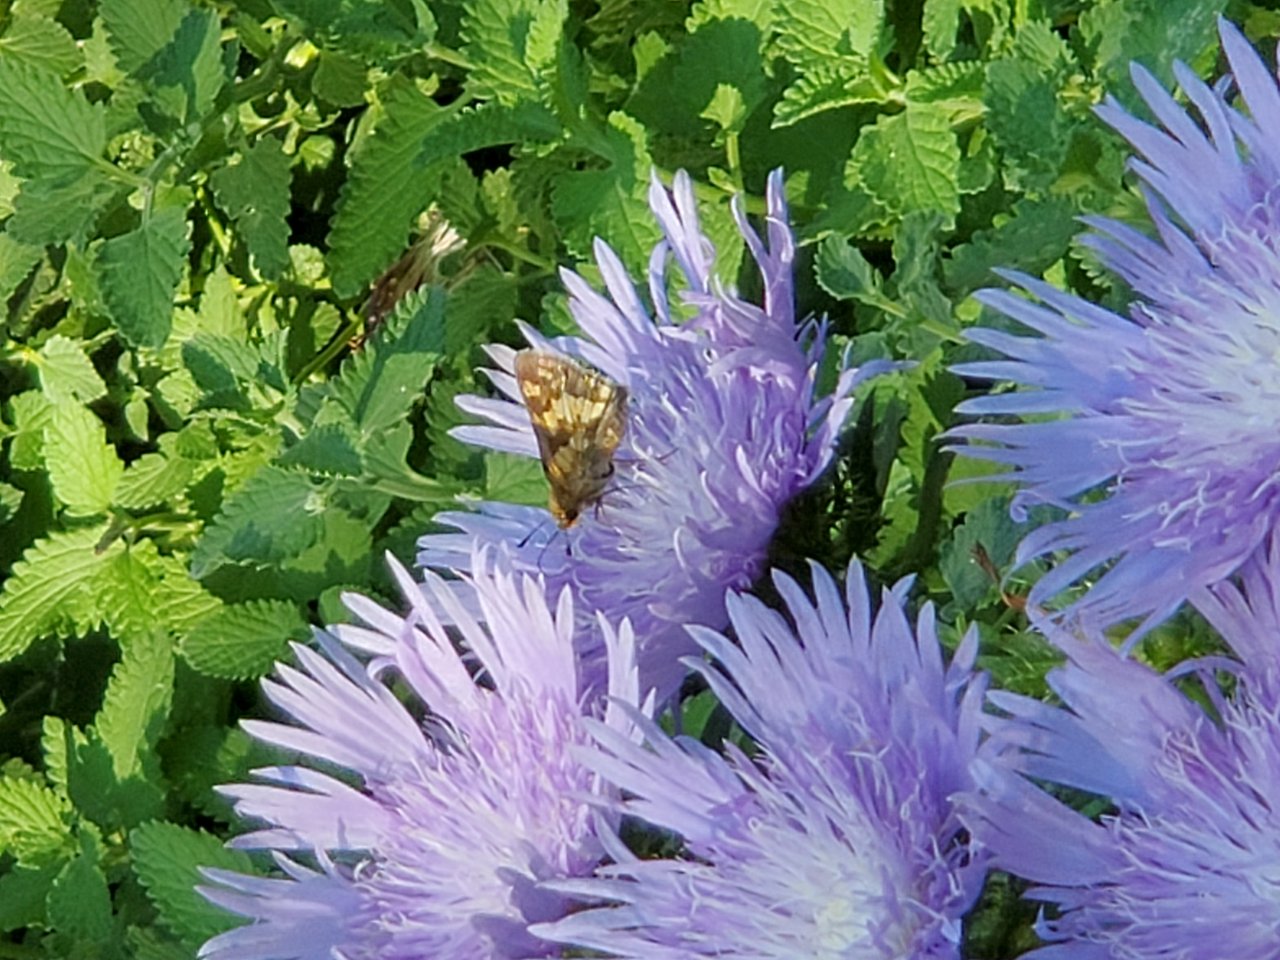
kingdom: Animalia
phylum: Arthropoda
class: Insecta
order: Lepidoptera
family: Hesperiidae
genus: Polites
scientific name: Polites coras
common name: Peck's Skipper
